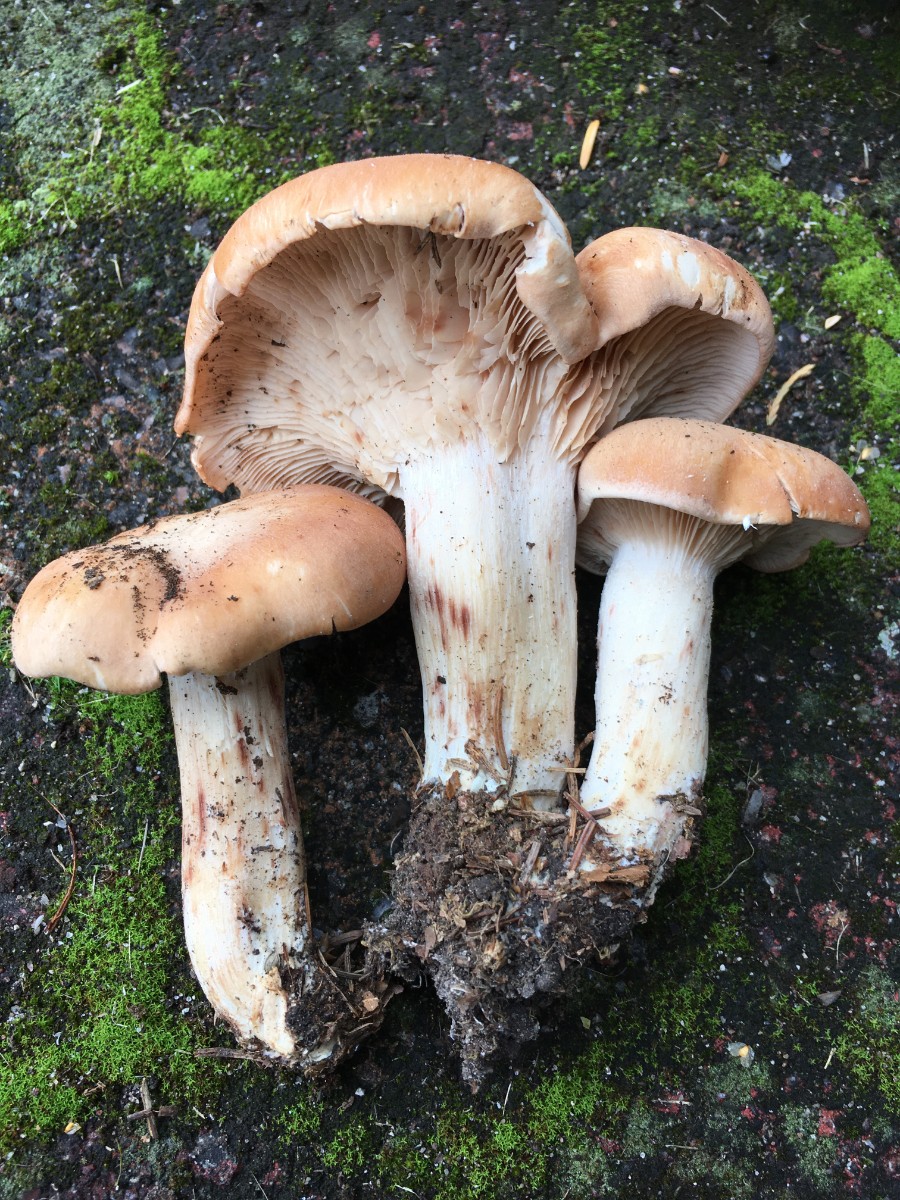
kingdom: Fungi
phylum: Basidiomycota
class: Agaricomycetes
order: Agaricales
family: Entolomataceae
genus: Clitopilus
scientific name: Clitopilus geminus
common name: kødfarvet troldhat
